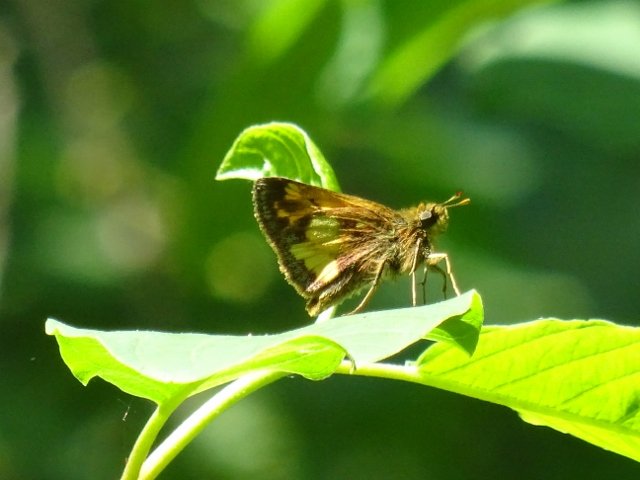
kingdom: Animalia
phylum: Arthropoda
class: Insecta
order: Lepidoptera
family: Hesperiidae
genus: Lon
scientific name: Lon hobomok
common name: Hobomok Skipper
